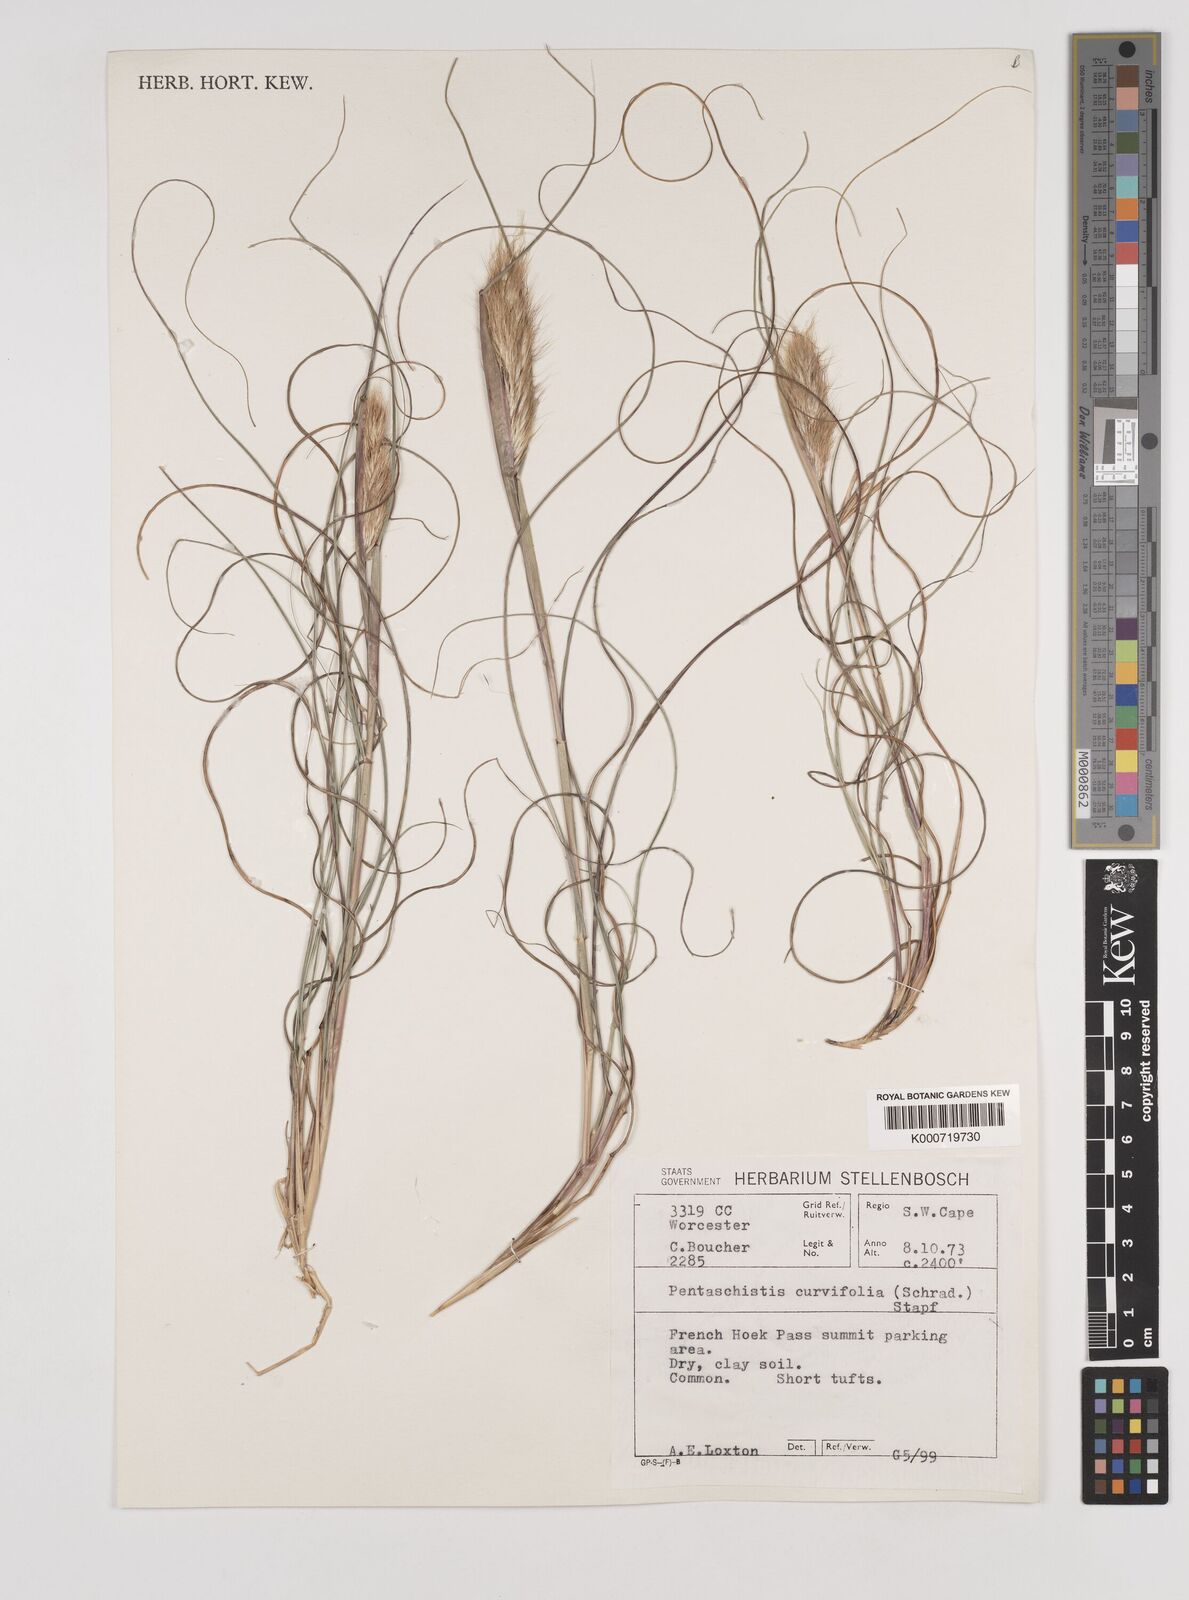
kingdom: Plantae
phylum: Tracheophyta
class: Liliopsida
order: Poales
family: Poaceae
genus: Pentameris
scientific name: Pentameris curvifolia
